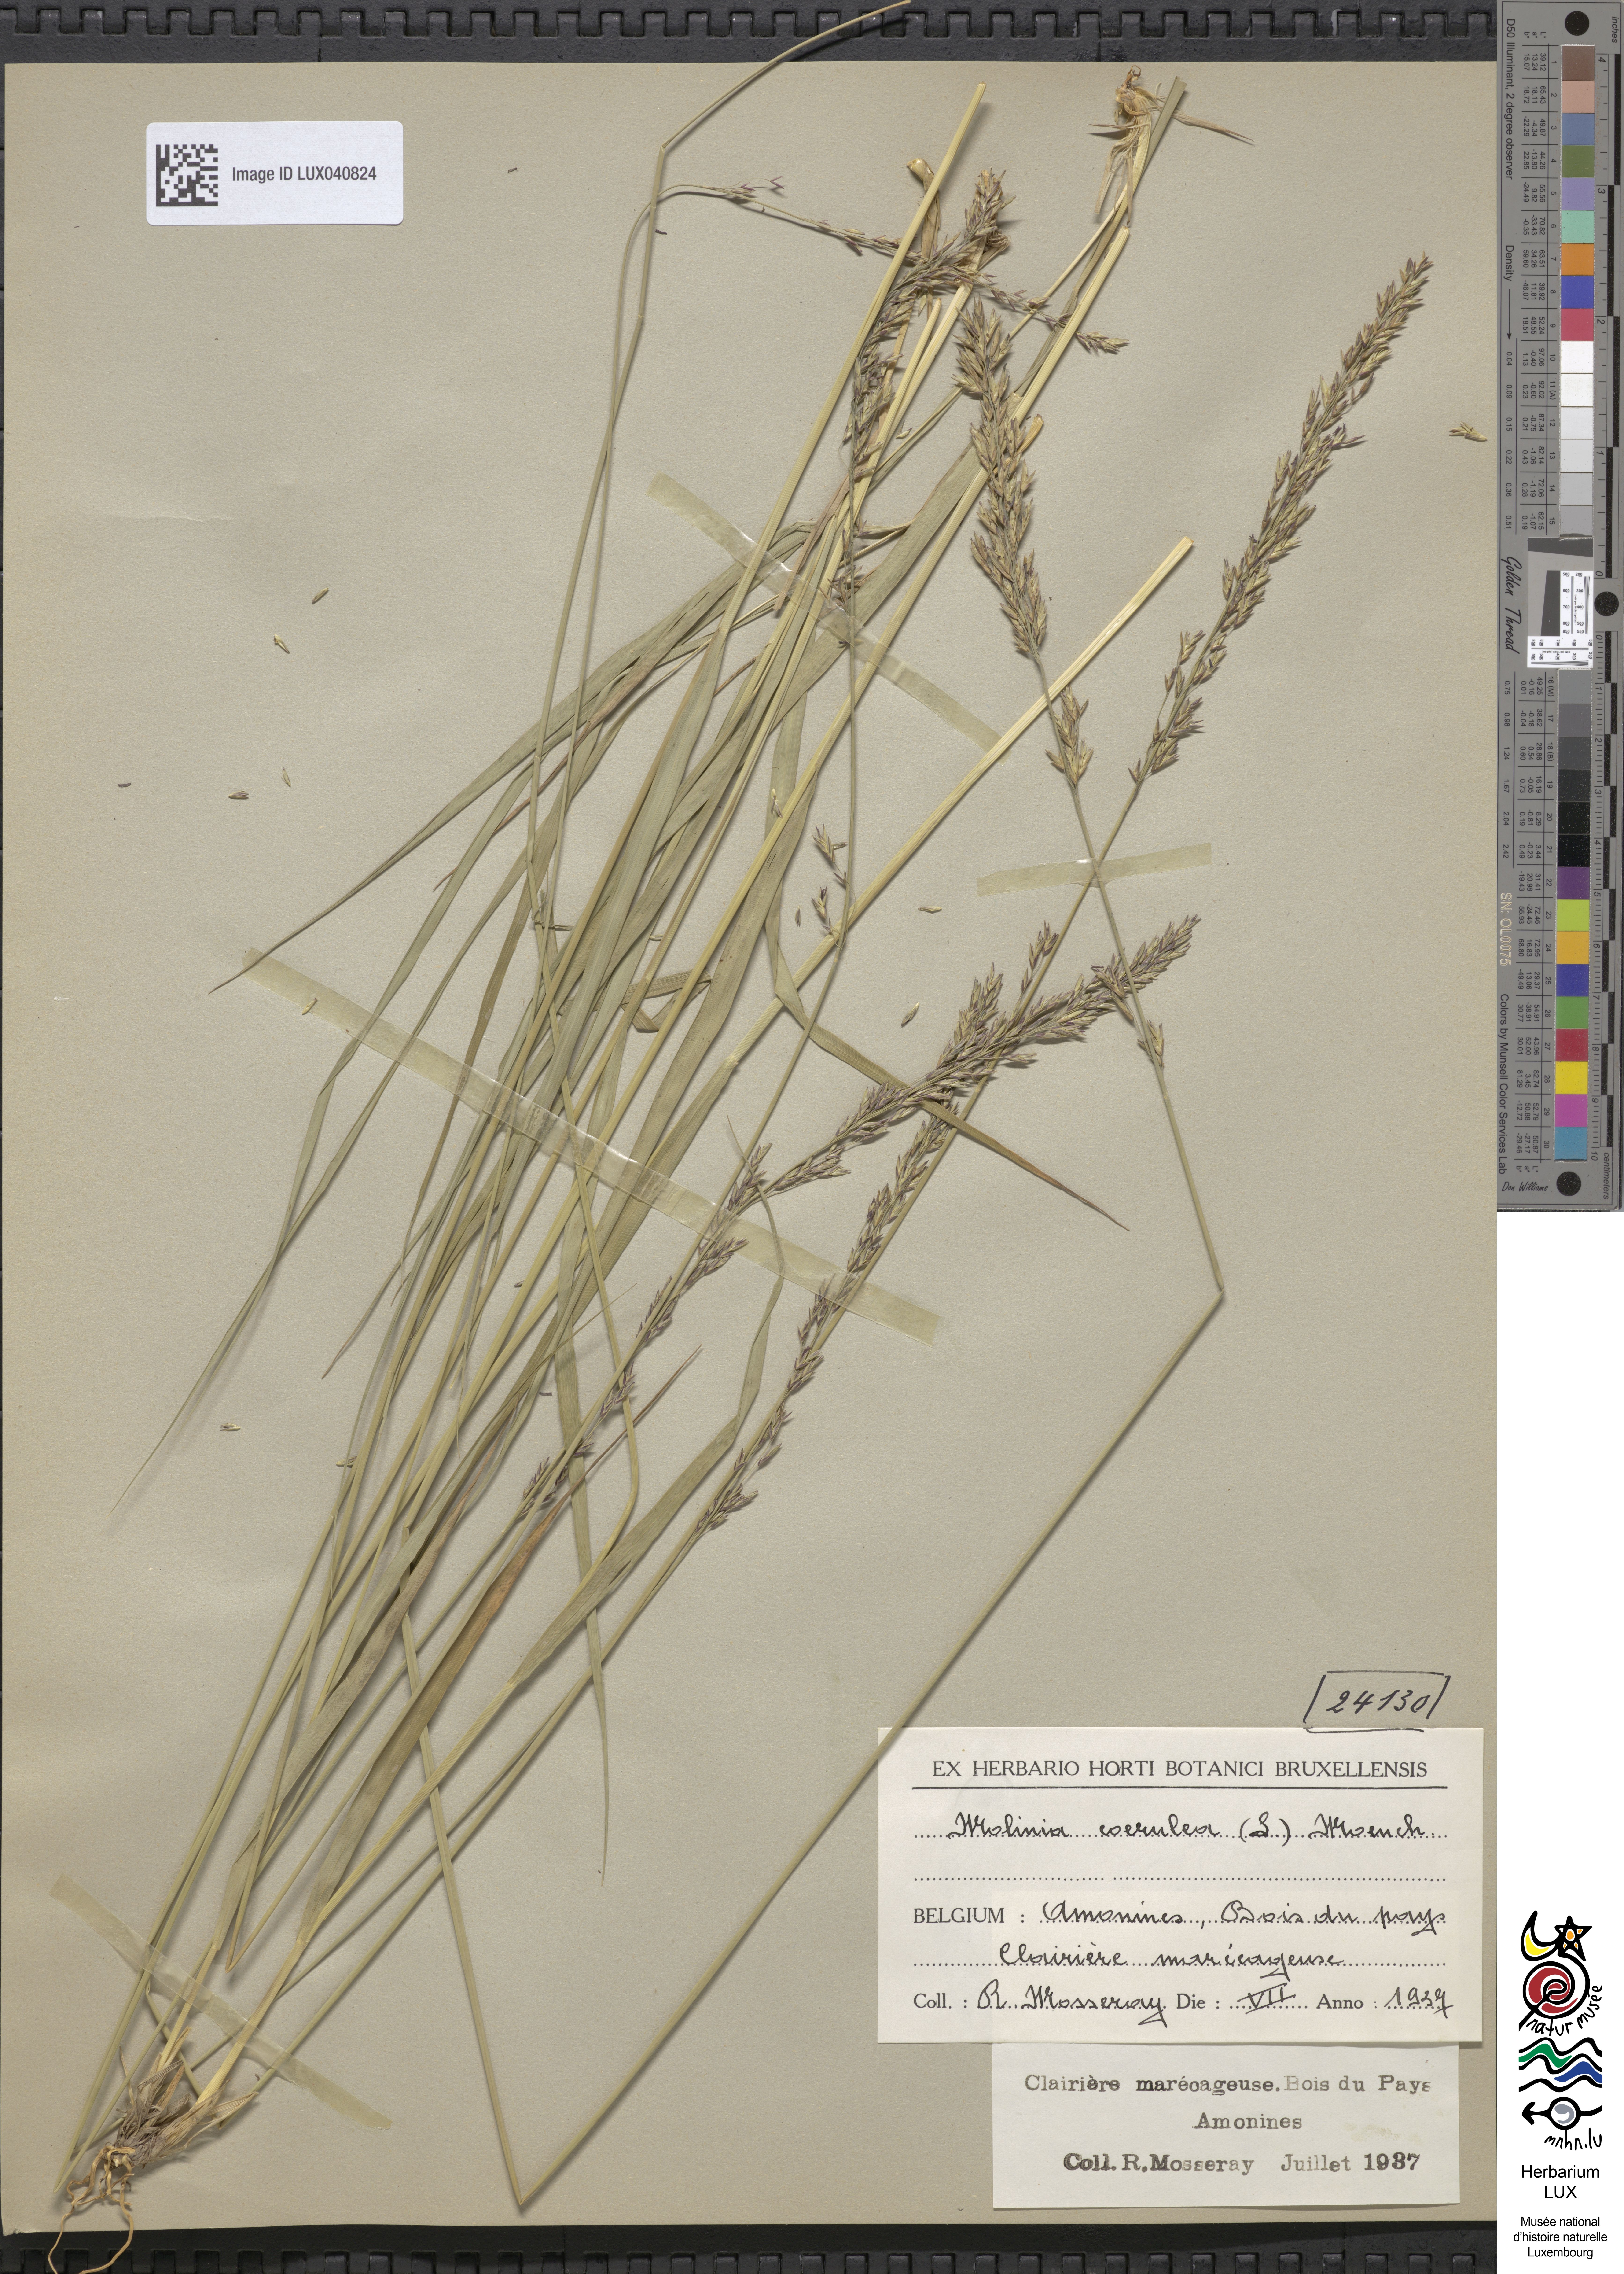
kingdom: Plantae
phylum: Tracheophyta
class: Liliopsida
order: Poales
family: Poaceae
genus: Molinia
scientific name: Molinia caerulea
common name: Purple moor-grass
